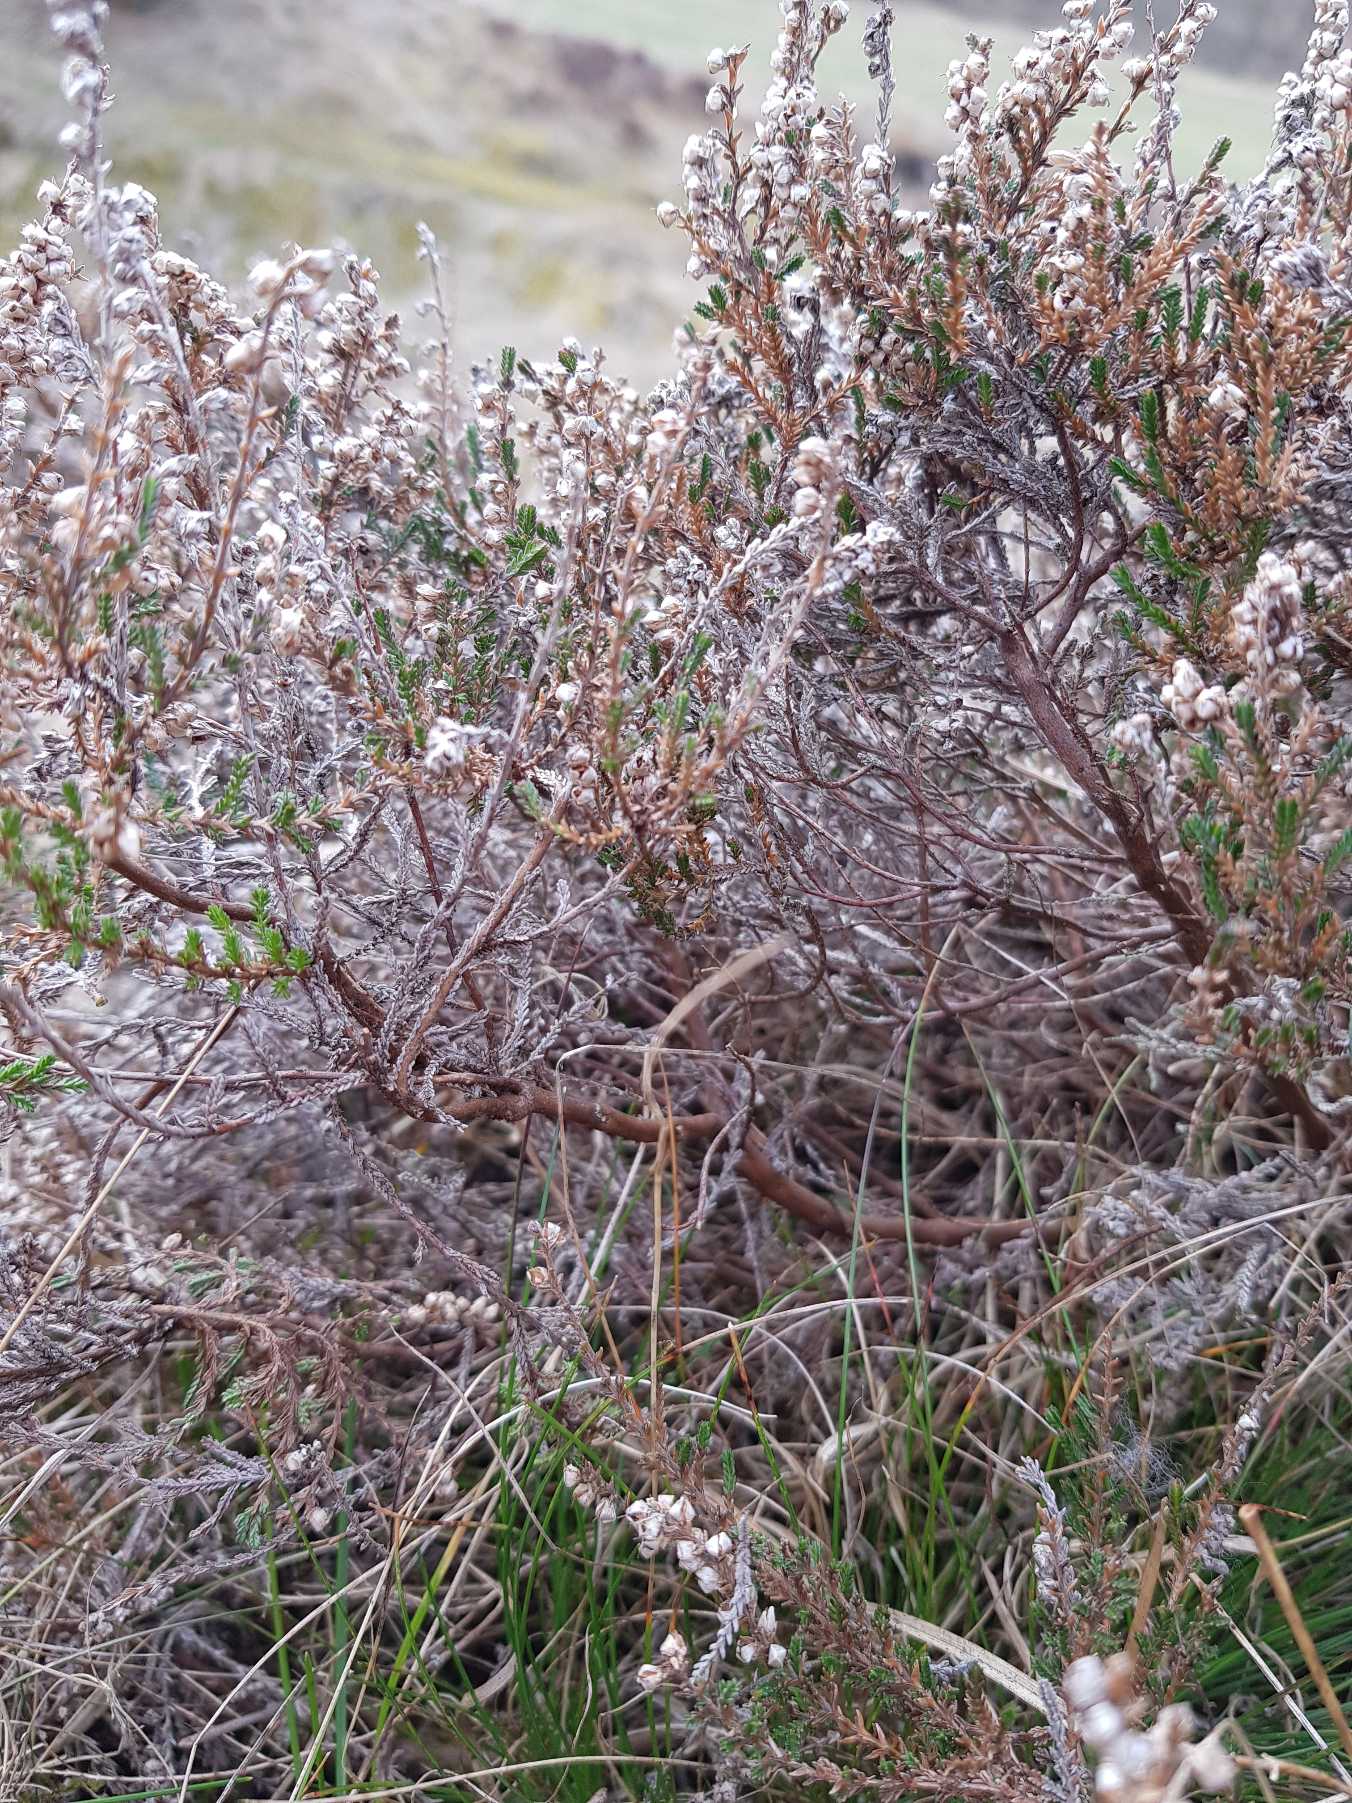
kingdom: Plantae
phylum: Tracheophyta
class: Magnoliopsida
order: Ericales
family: Ericaceae
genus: Calluna
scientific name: Calluna vulgaris
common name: Hedelyng
